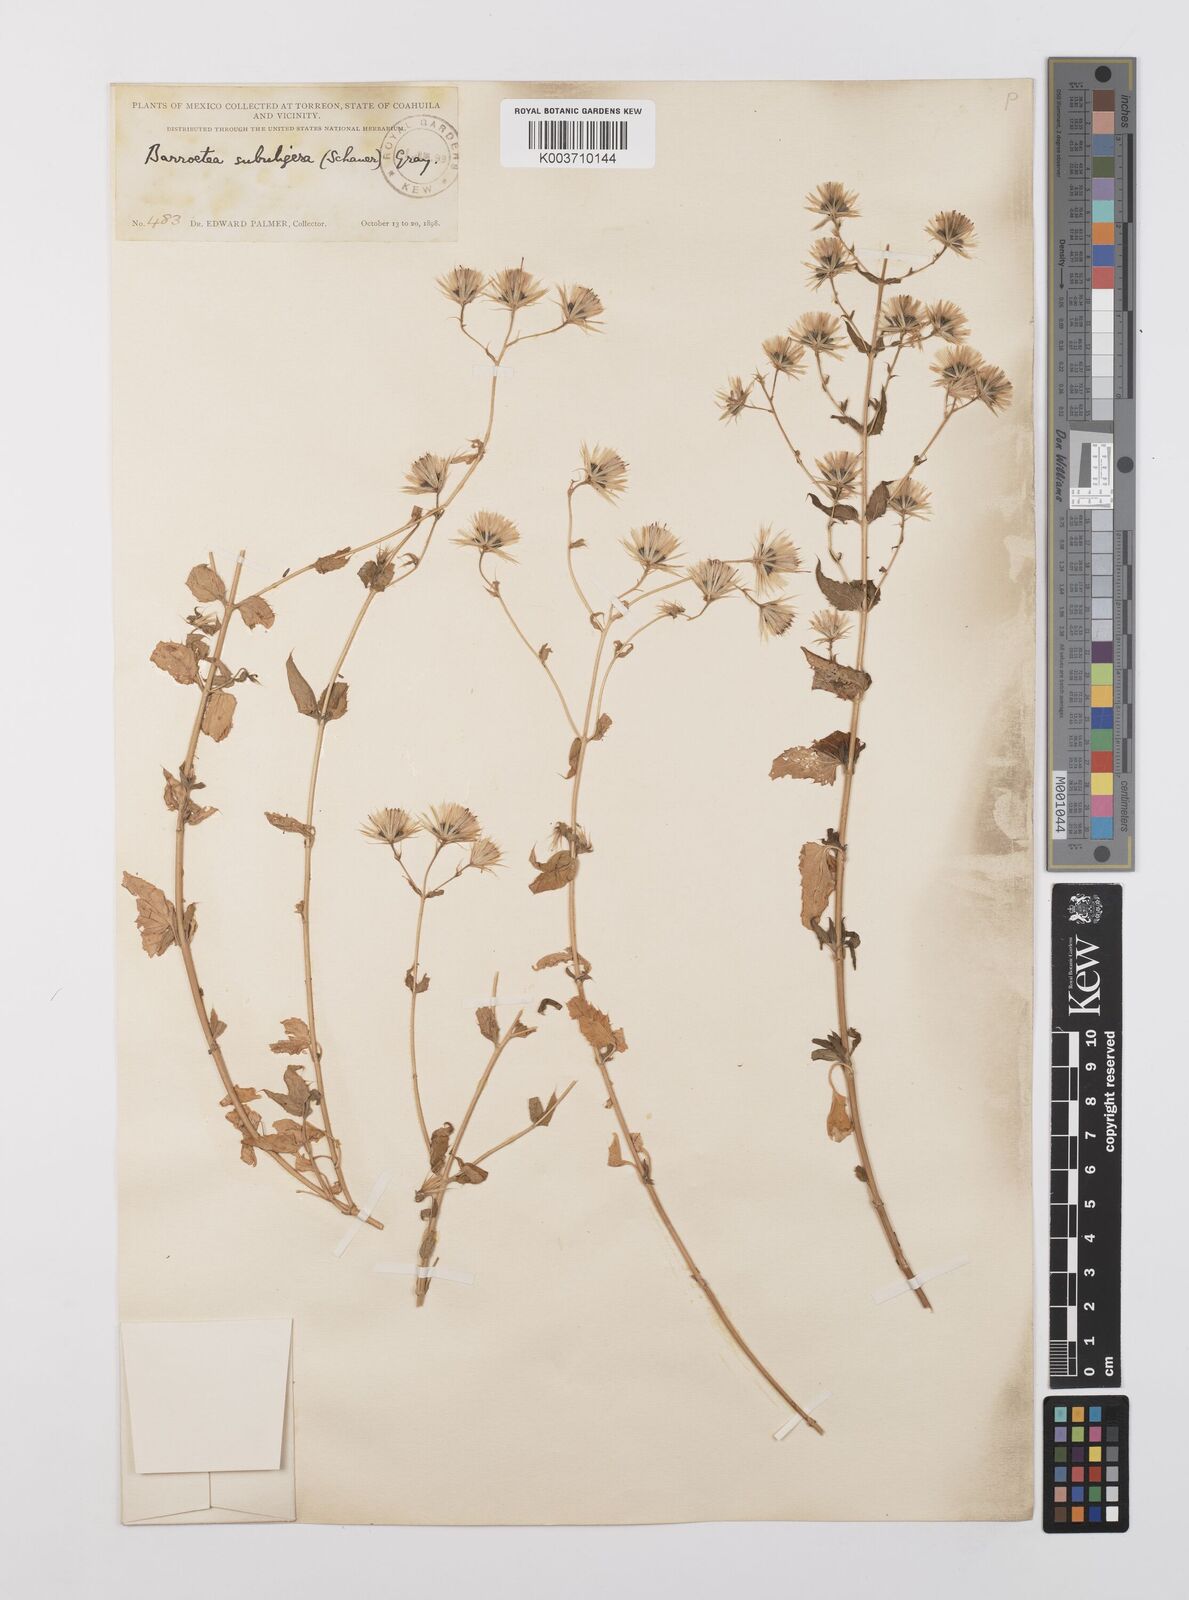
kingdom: Plantae
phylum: Tracheophyta
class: Magnoliopsida
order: Asterales
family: Asteraceae
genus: Brickellia
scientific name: Brickellia subuligera
